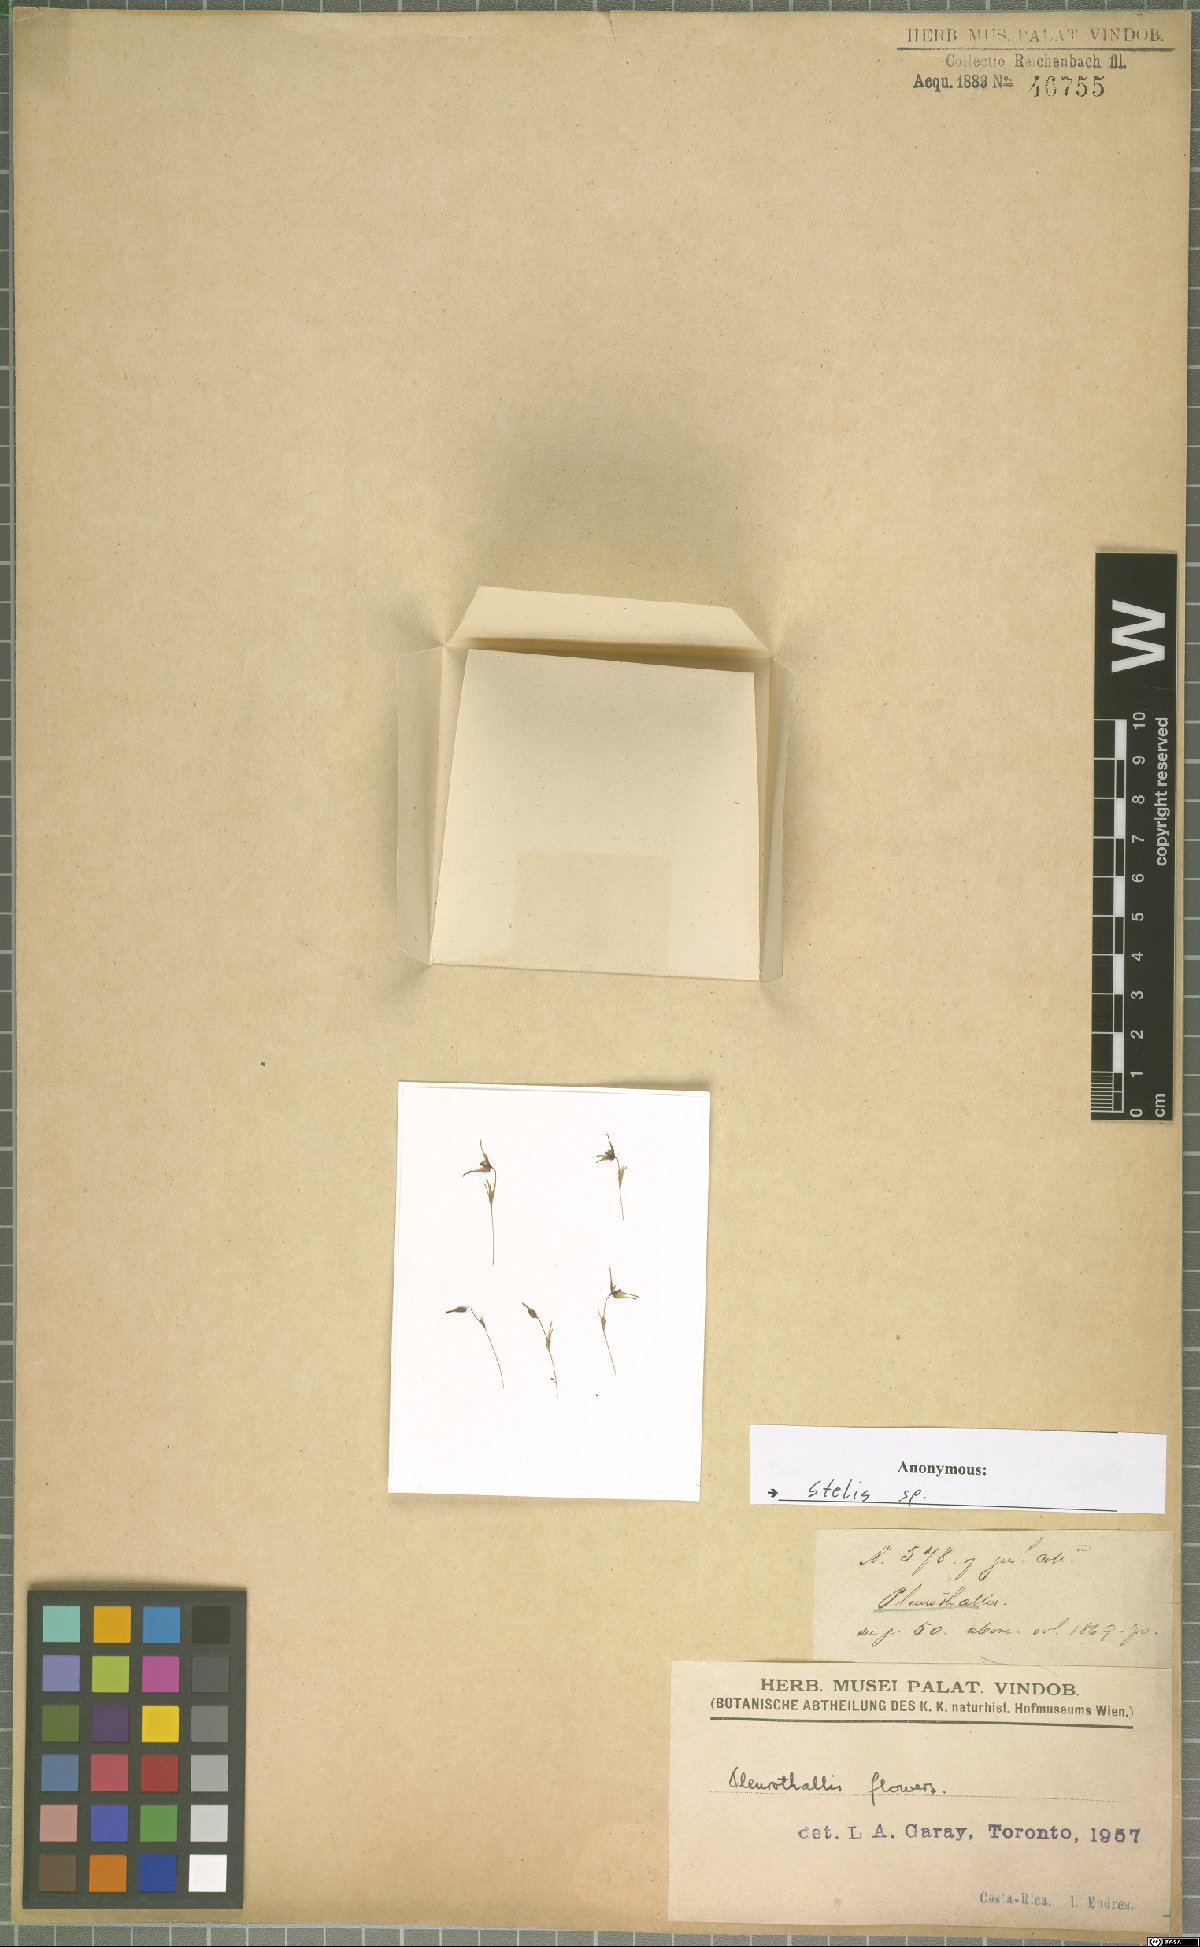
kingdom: Plantae
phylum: Tracheophyta
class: Liliopsida
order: Asparagales
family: Orchidaceae
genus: Stelis
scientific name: Stelis
